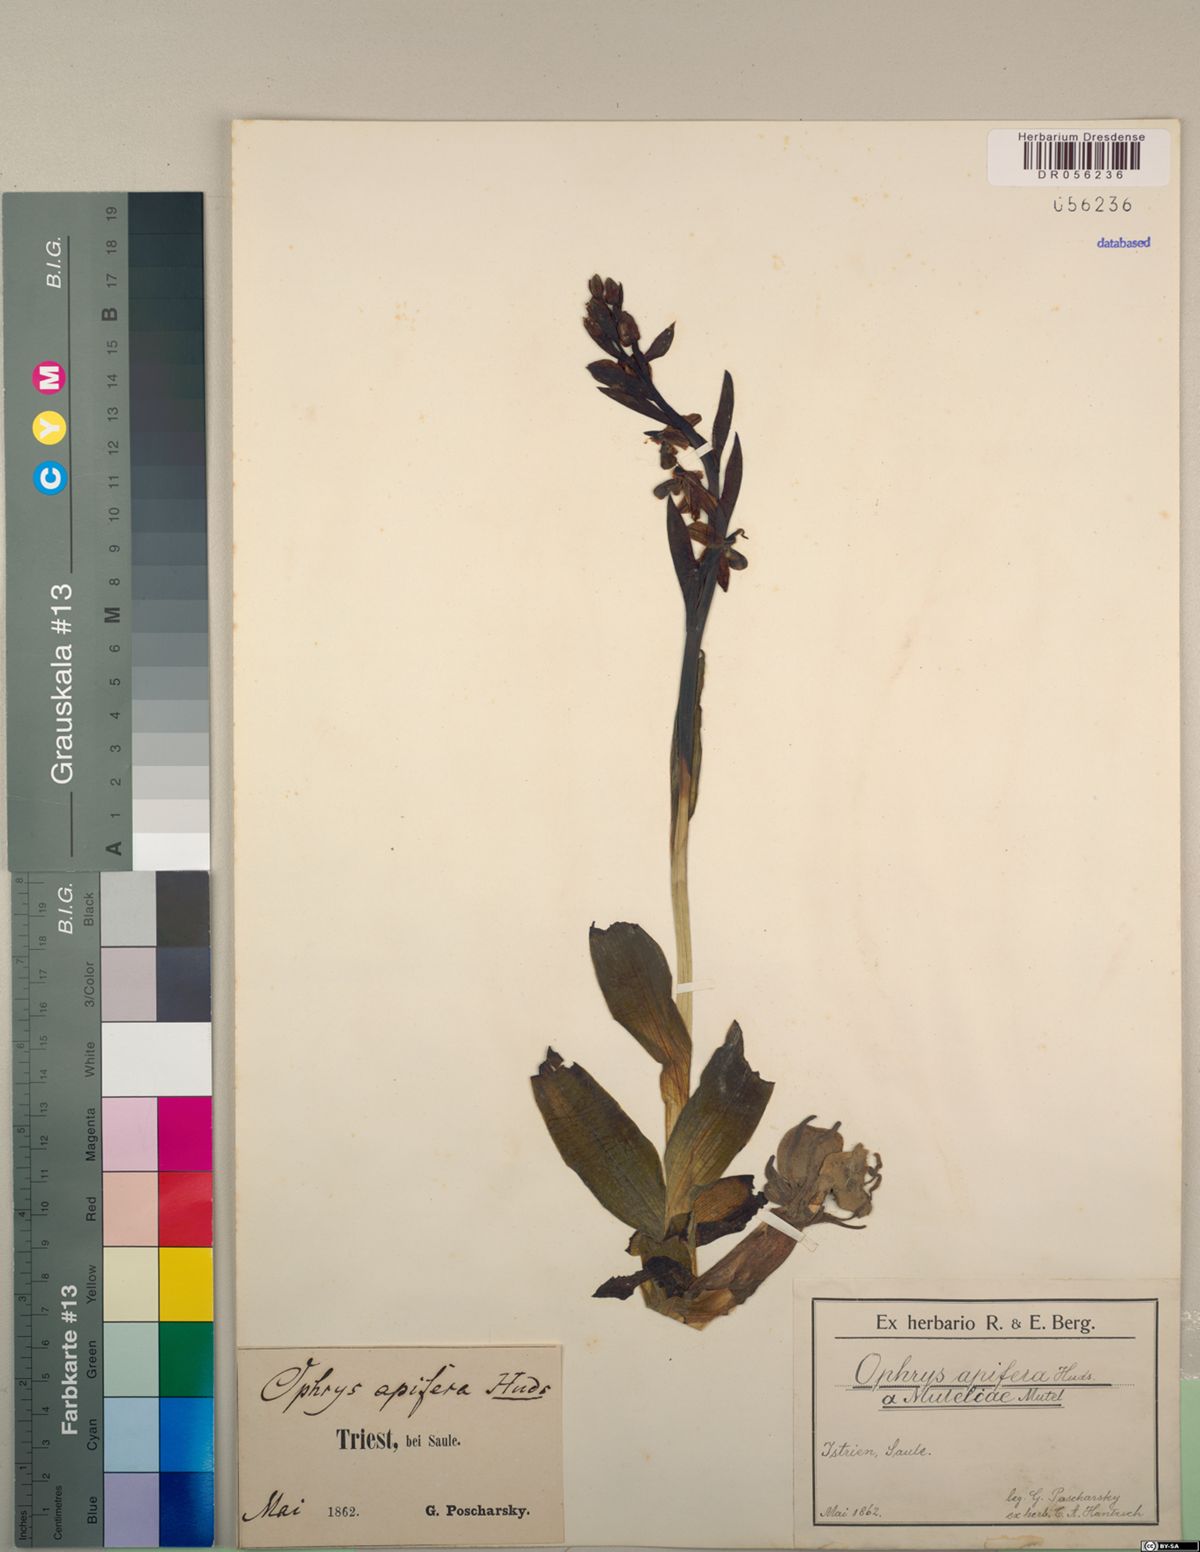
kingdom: Plantae
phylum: Tracheophyta
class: Liliopsida
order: Asparagales
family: Orchidaceae
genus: Ophrys
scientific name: Ophrys apifera
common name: Bee orchid
